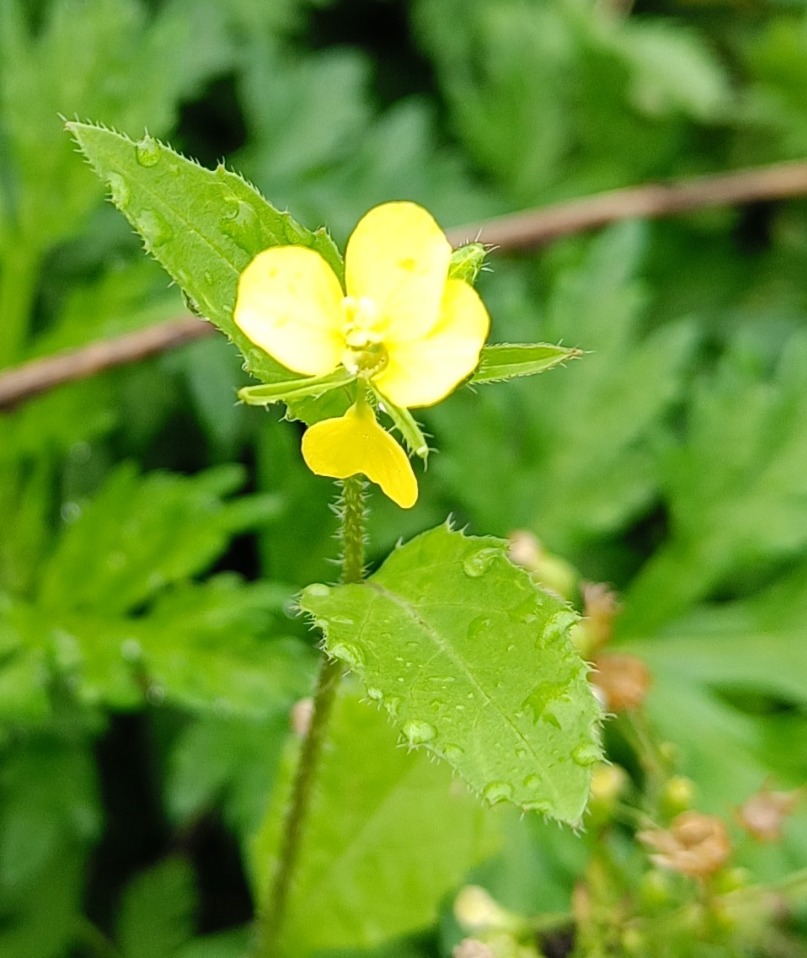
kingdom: Plantae
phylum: Tracheophyta
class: Magnoliopsida
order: Brassicales
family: Brassicaceae
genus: Sinapis
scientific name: Sinapis arvensis
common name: Ager-sennep
